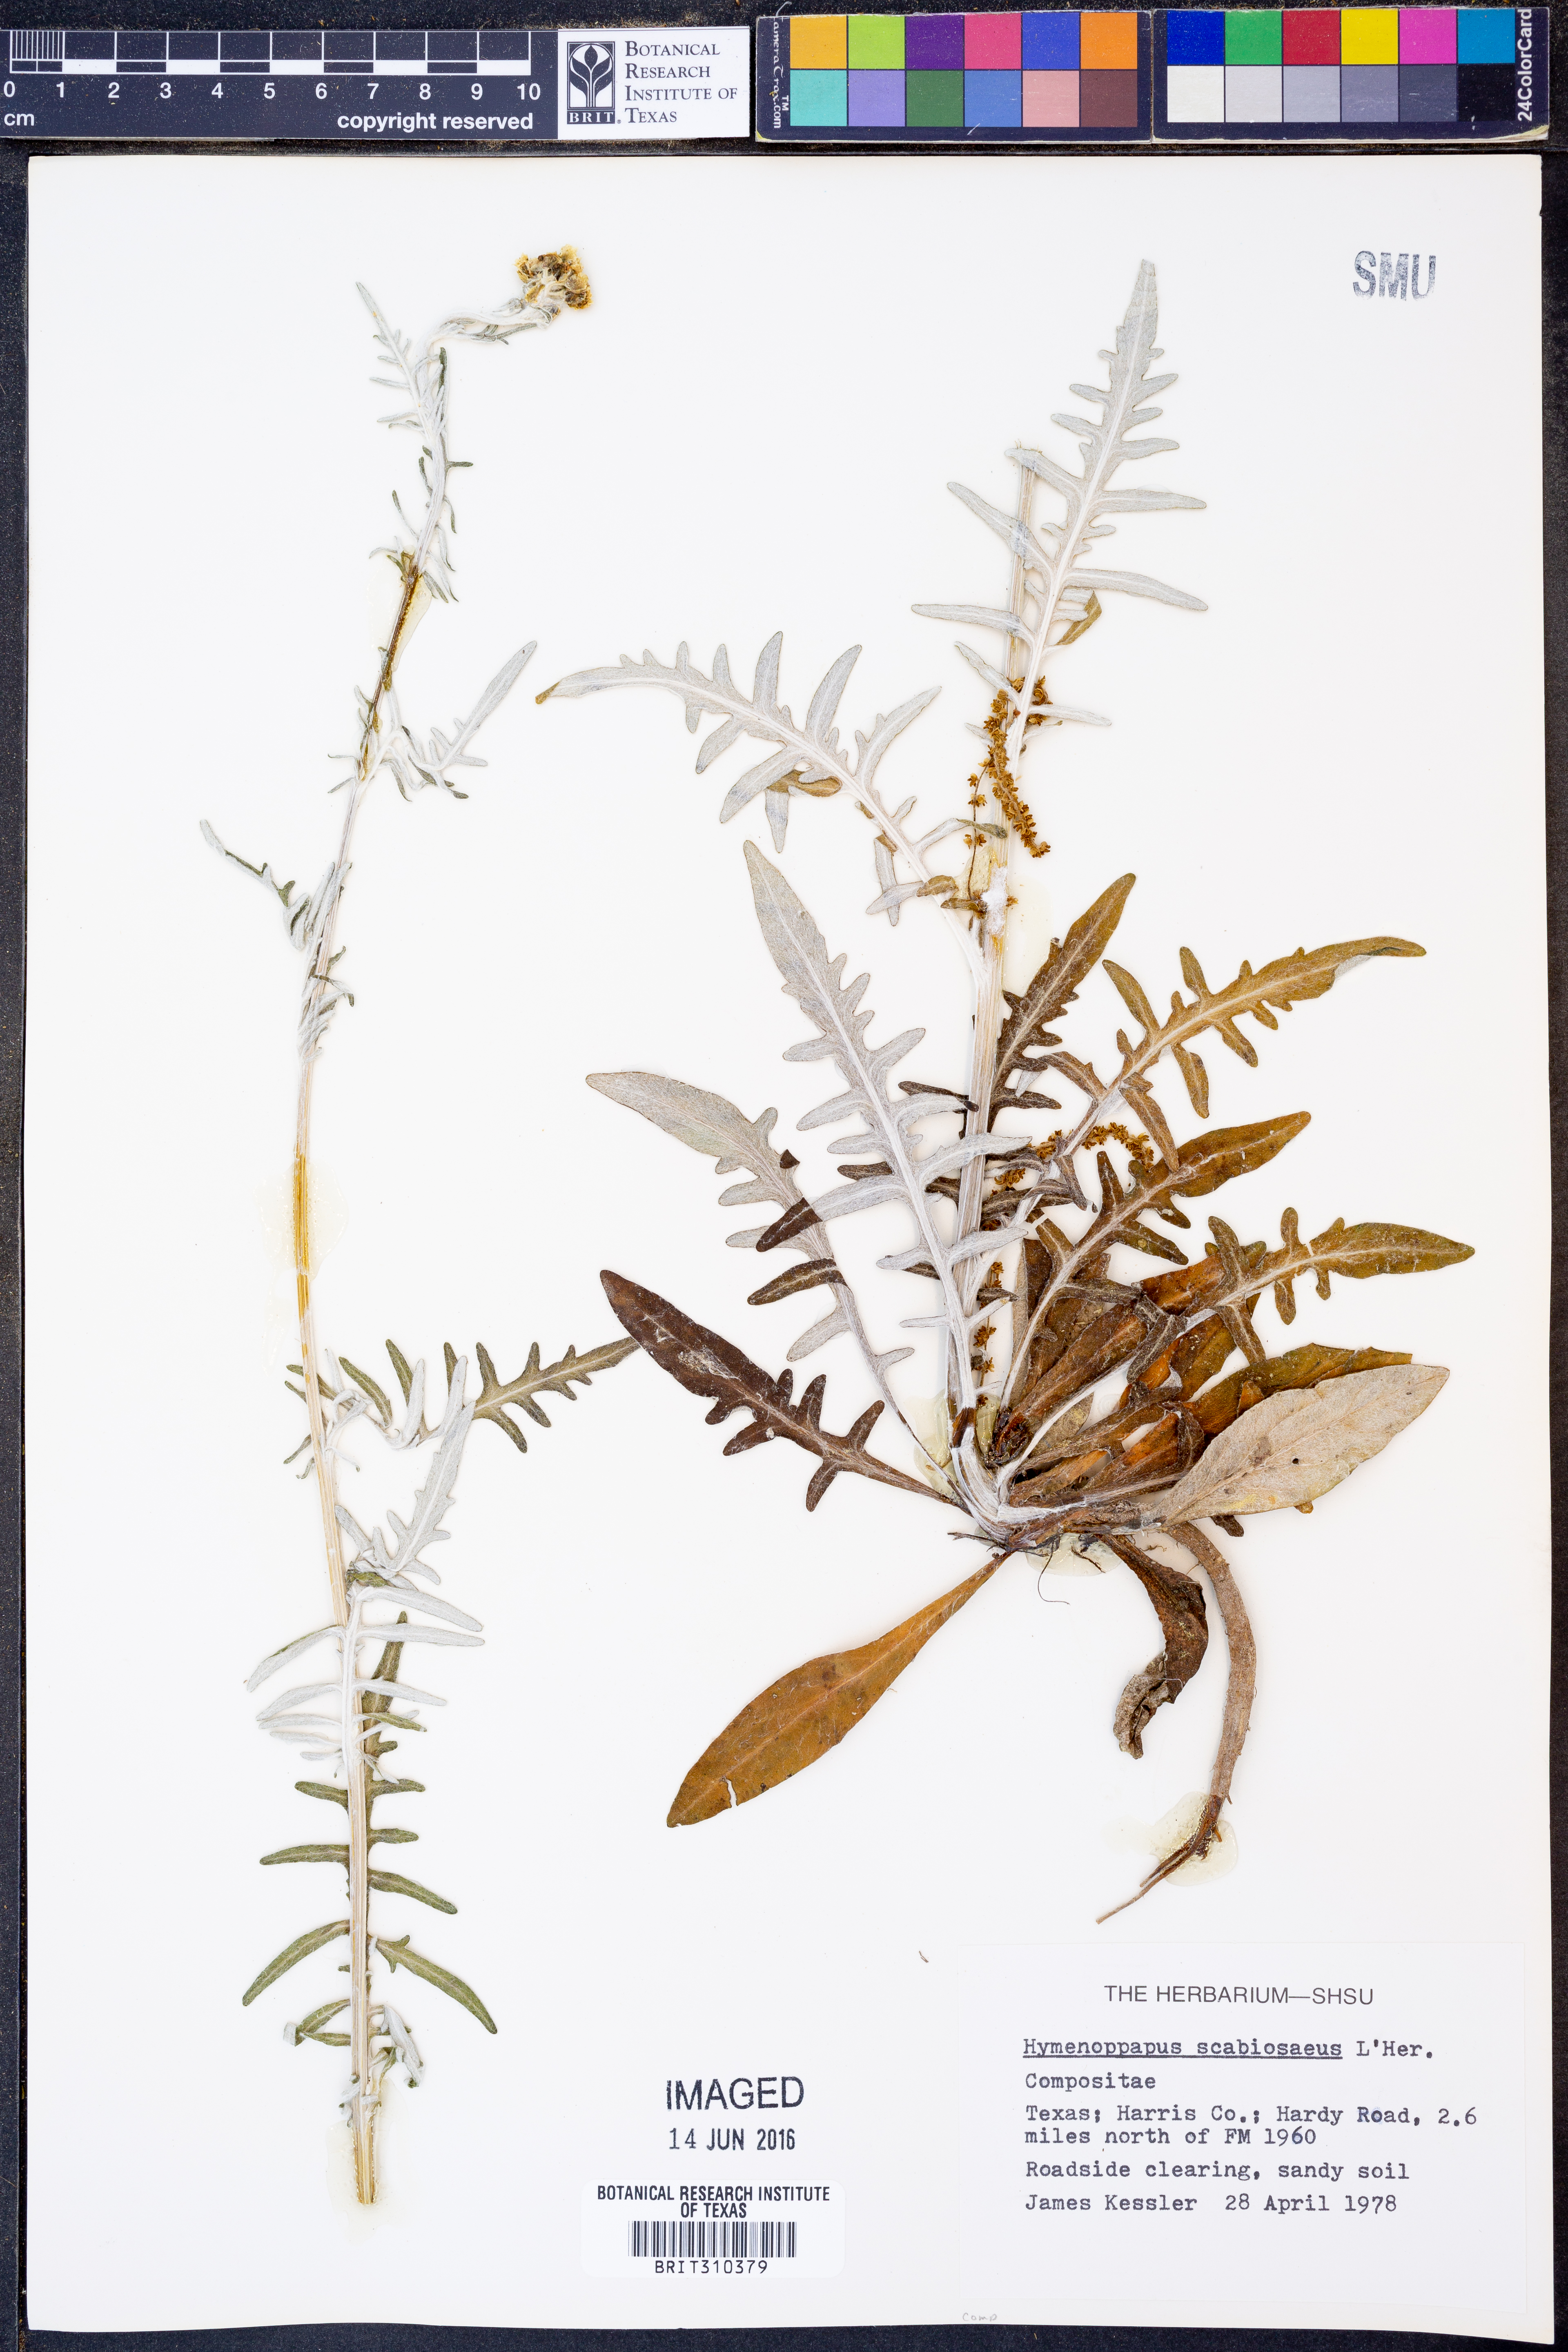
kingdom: Plantae
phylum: Tracheophyta
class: Magnoliopsida
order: Asterales
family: Asteraceae
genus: Hymenopappus
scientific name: Hymenopappus scabiosaeus
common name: Carolina woollywhite
